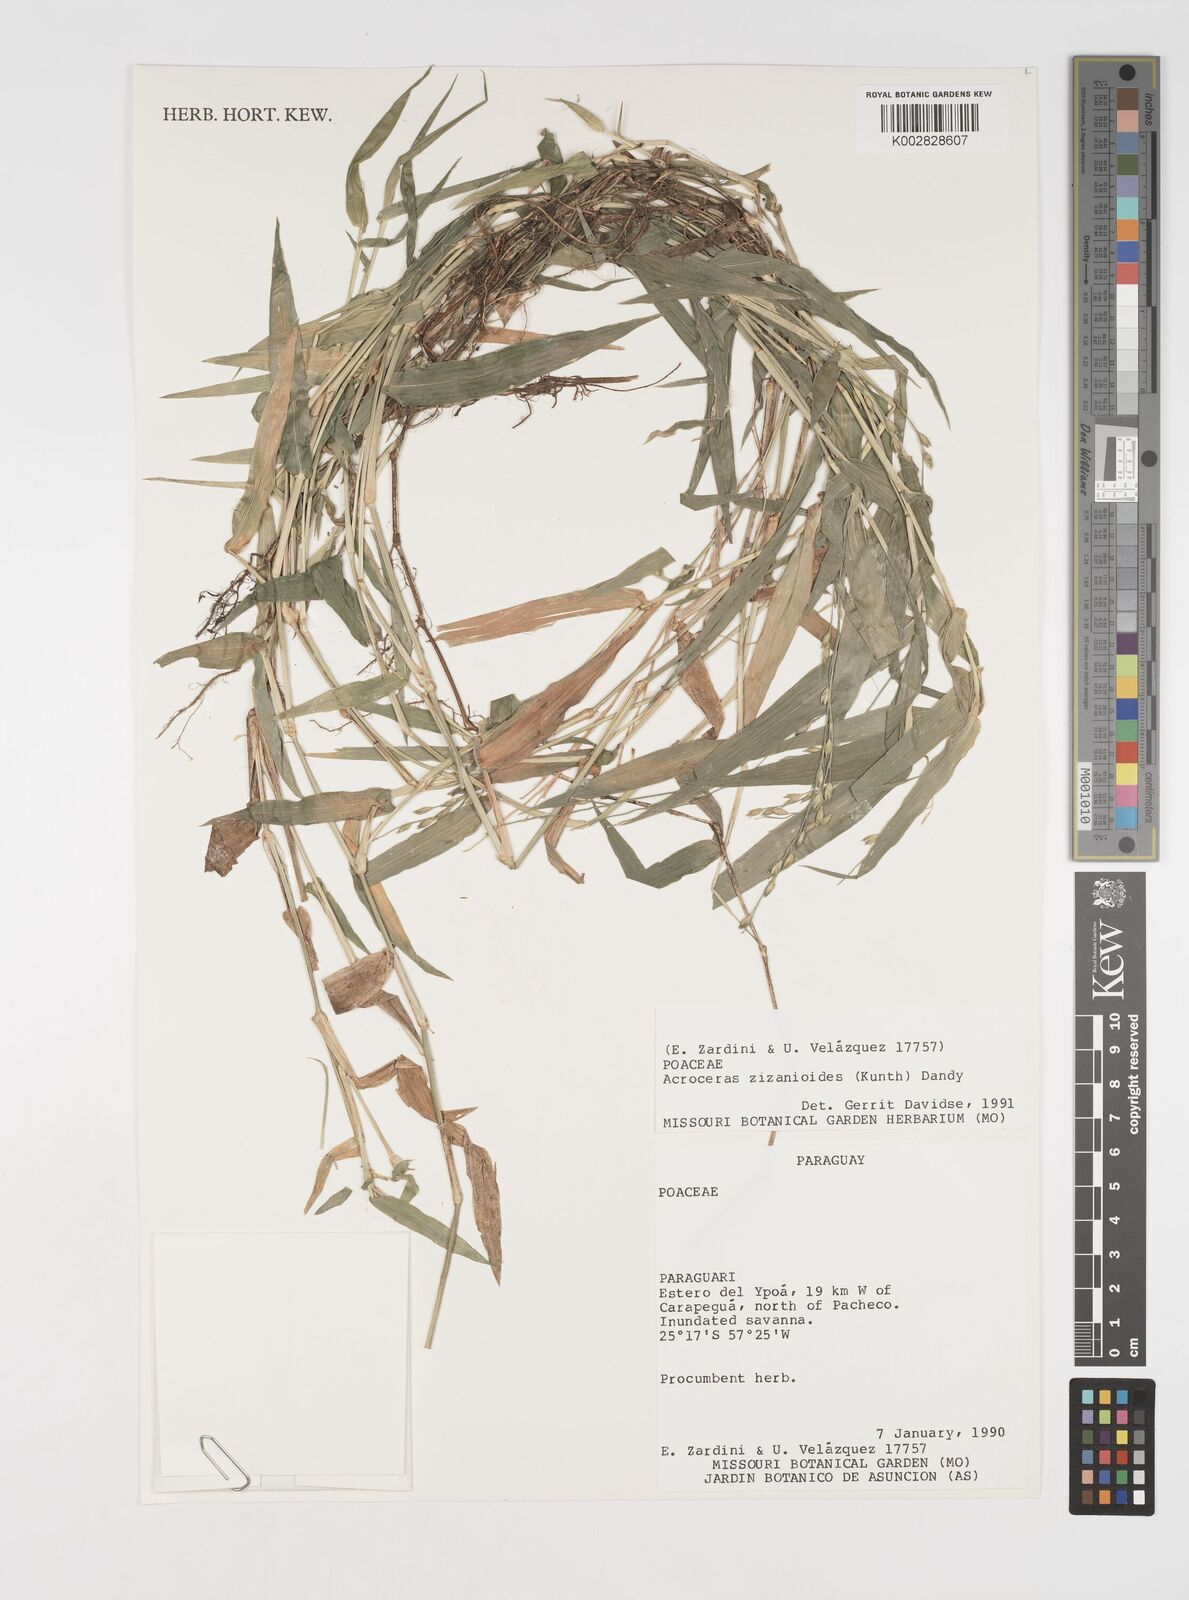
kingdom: Plantae
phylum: Tracheophyta
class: Liliopsida
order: Poales
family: Poaceae
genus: Acroceras
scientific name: Acroceras zizanioides
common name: Oat grass
